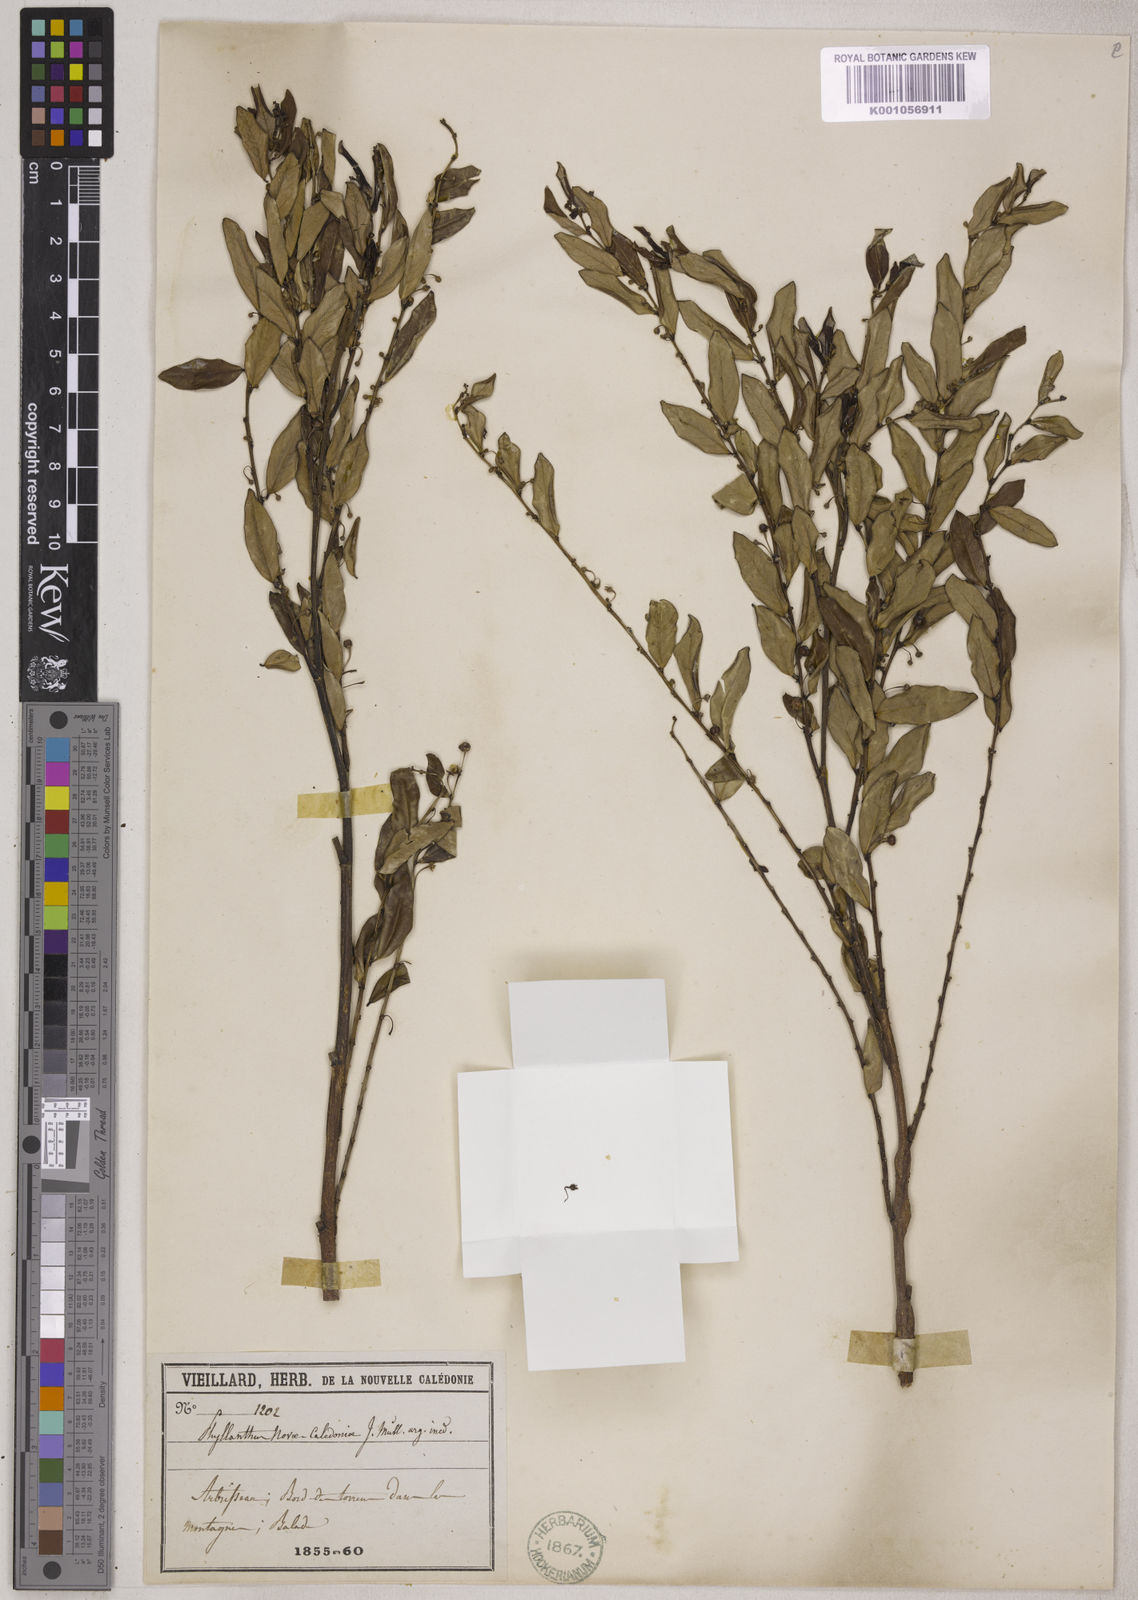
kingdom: Plantae
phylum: Tracheophyta
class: Magnoliopsida
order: Malpighiales
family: Phyllanthaceae
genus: Phyllanthus
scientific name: Phyllanthus bourgeoisii
